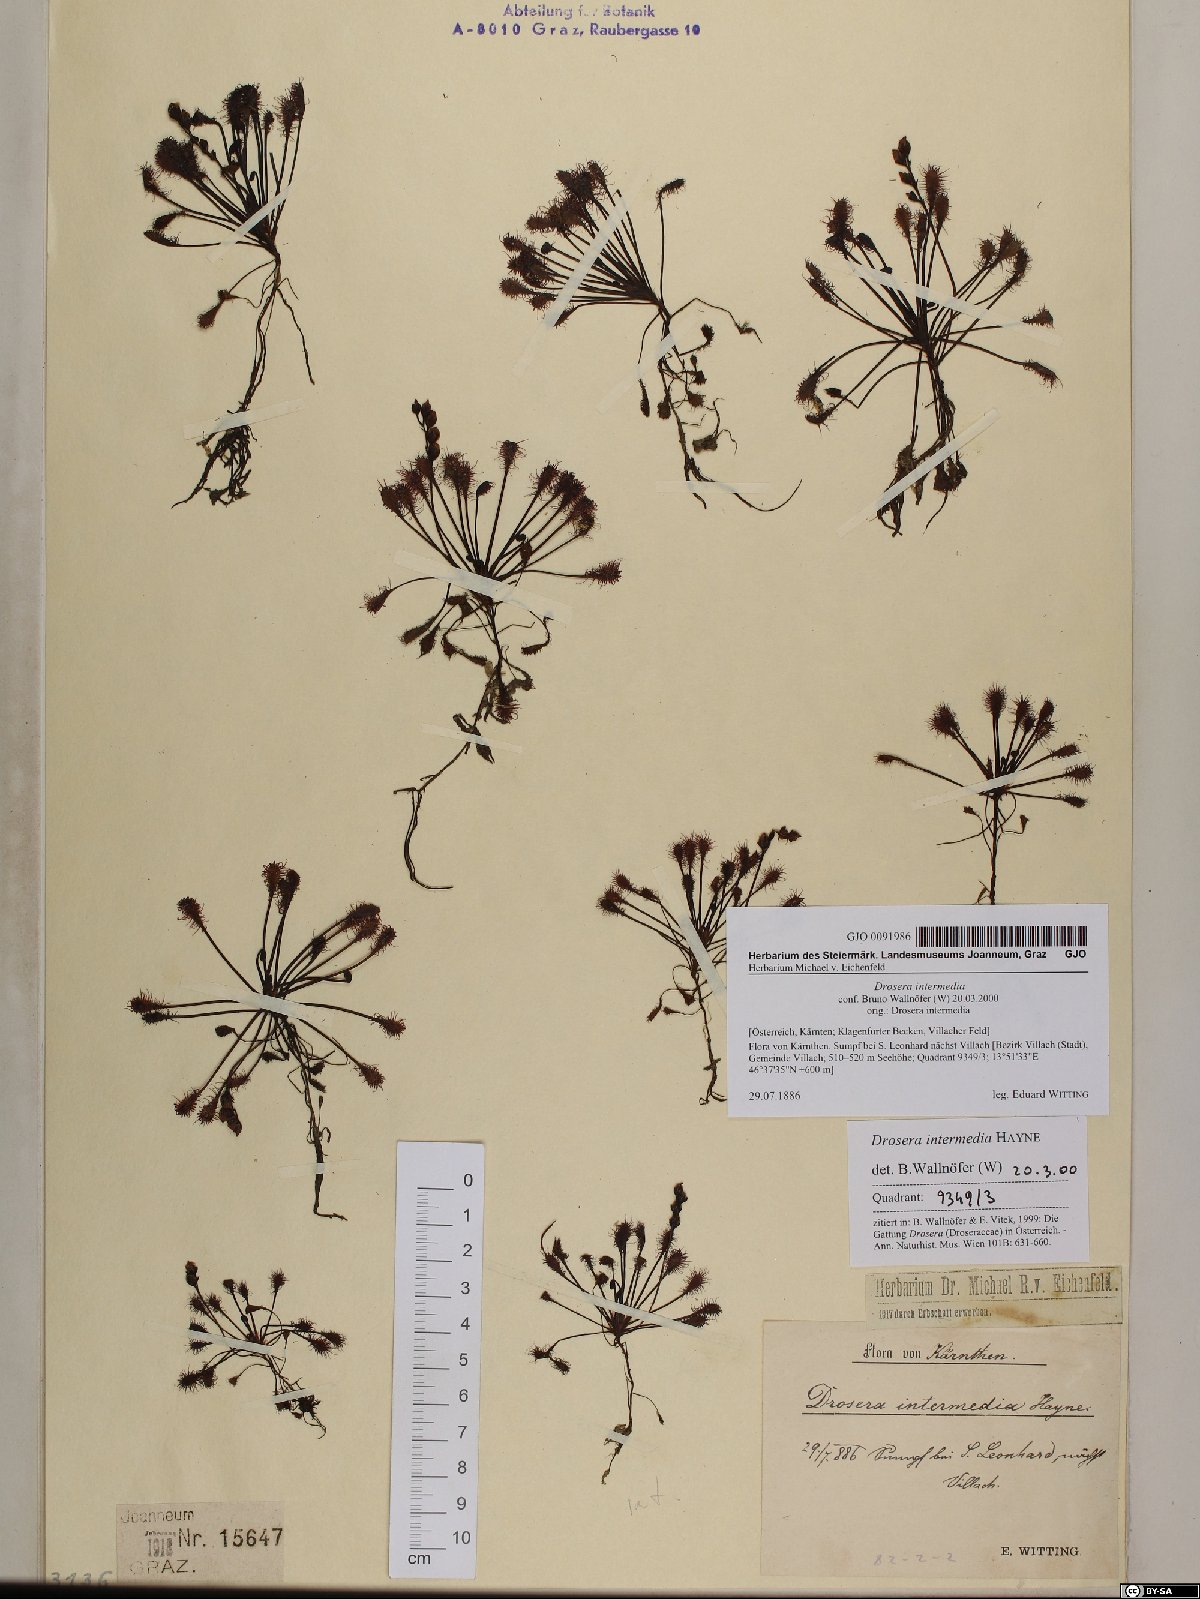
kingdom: Plantae
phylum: Tracheophyta
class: Magnoliopsida
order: Caryophyllales
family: Droseraceae
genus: Drosera
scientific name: Drosera intermedia
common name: Oblong-leaved sundew
